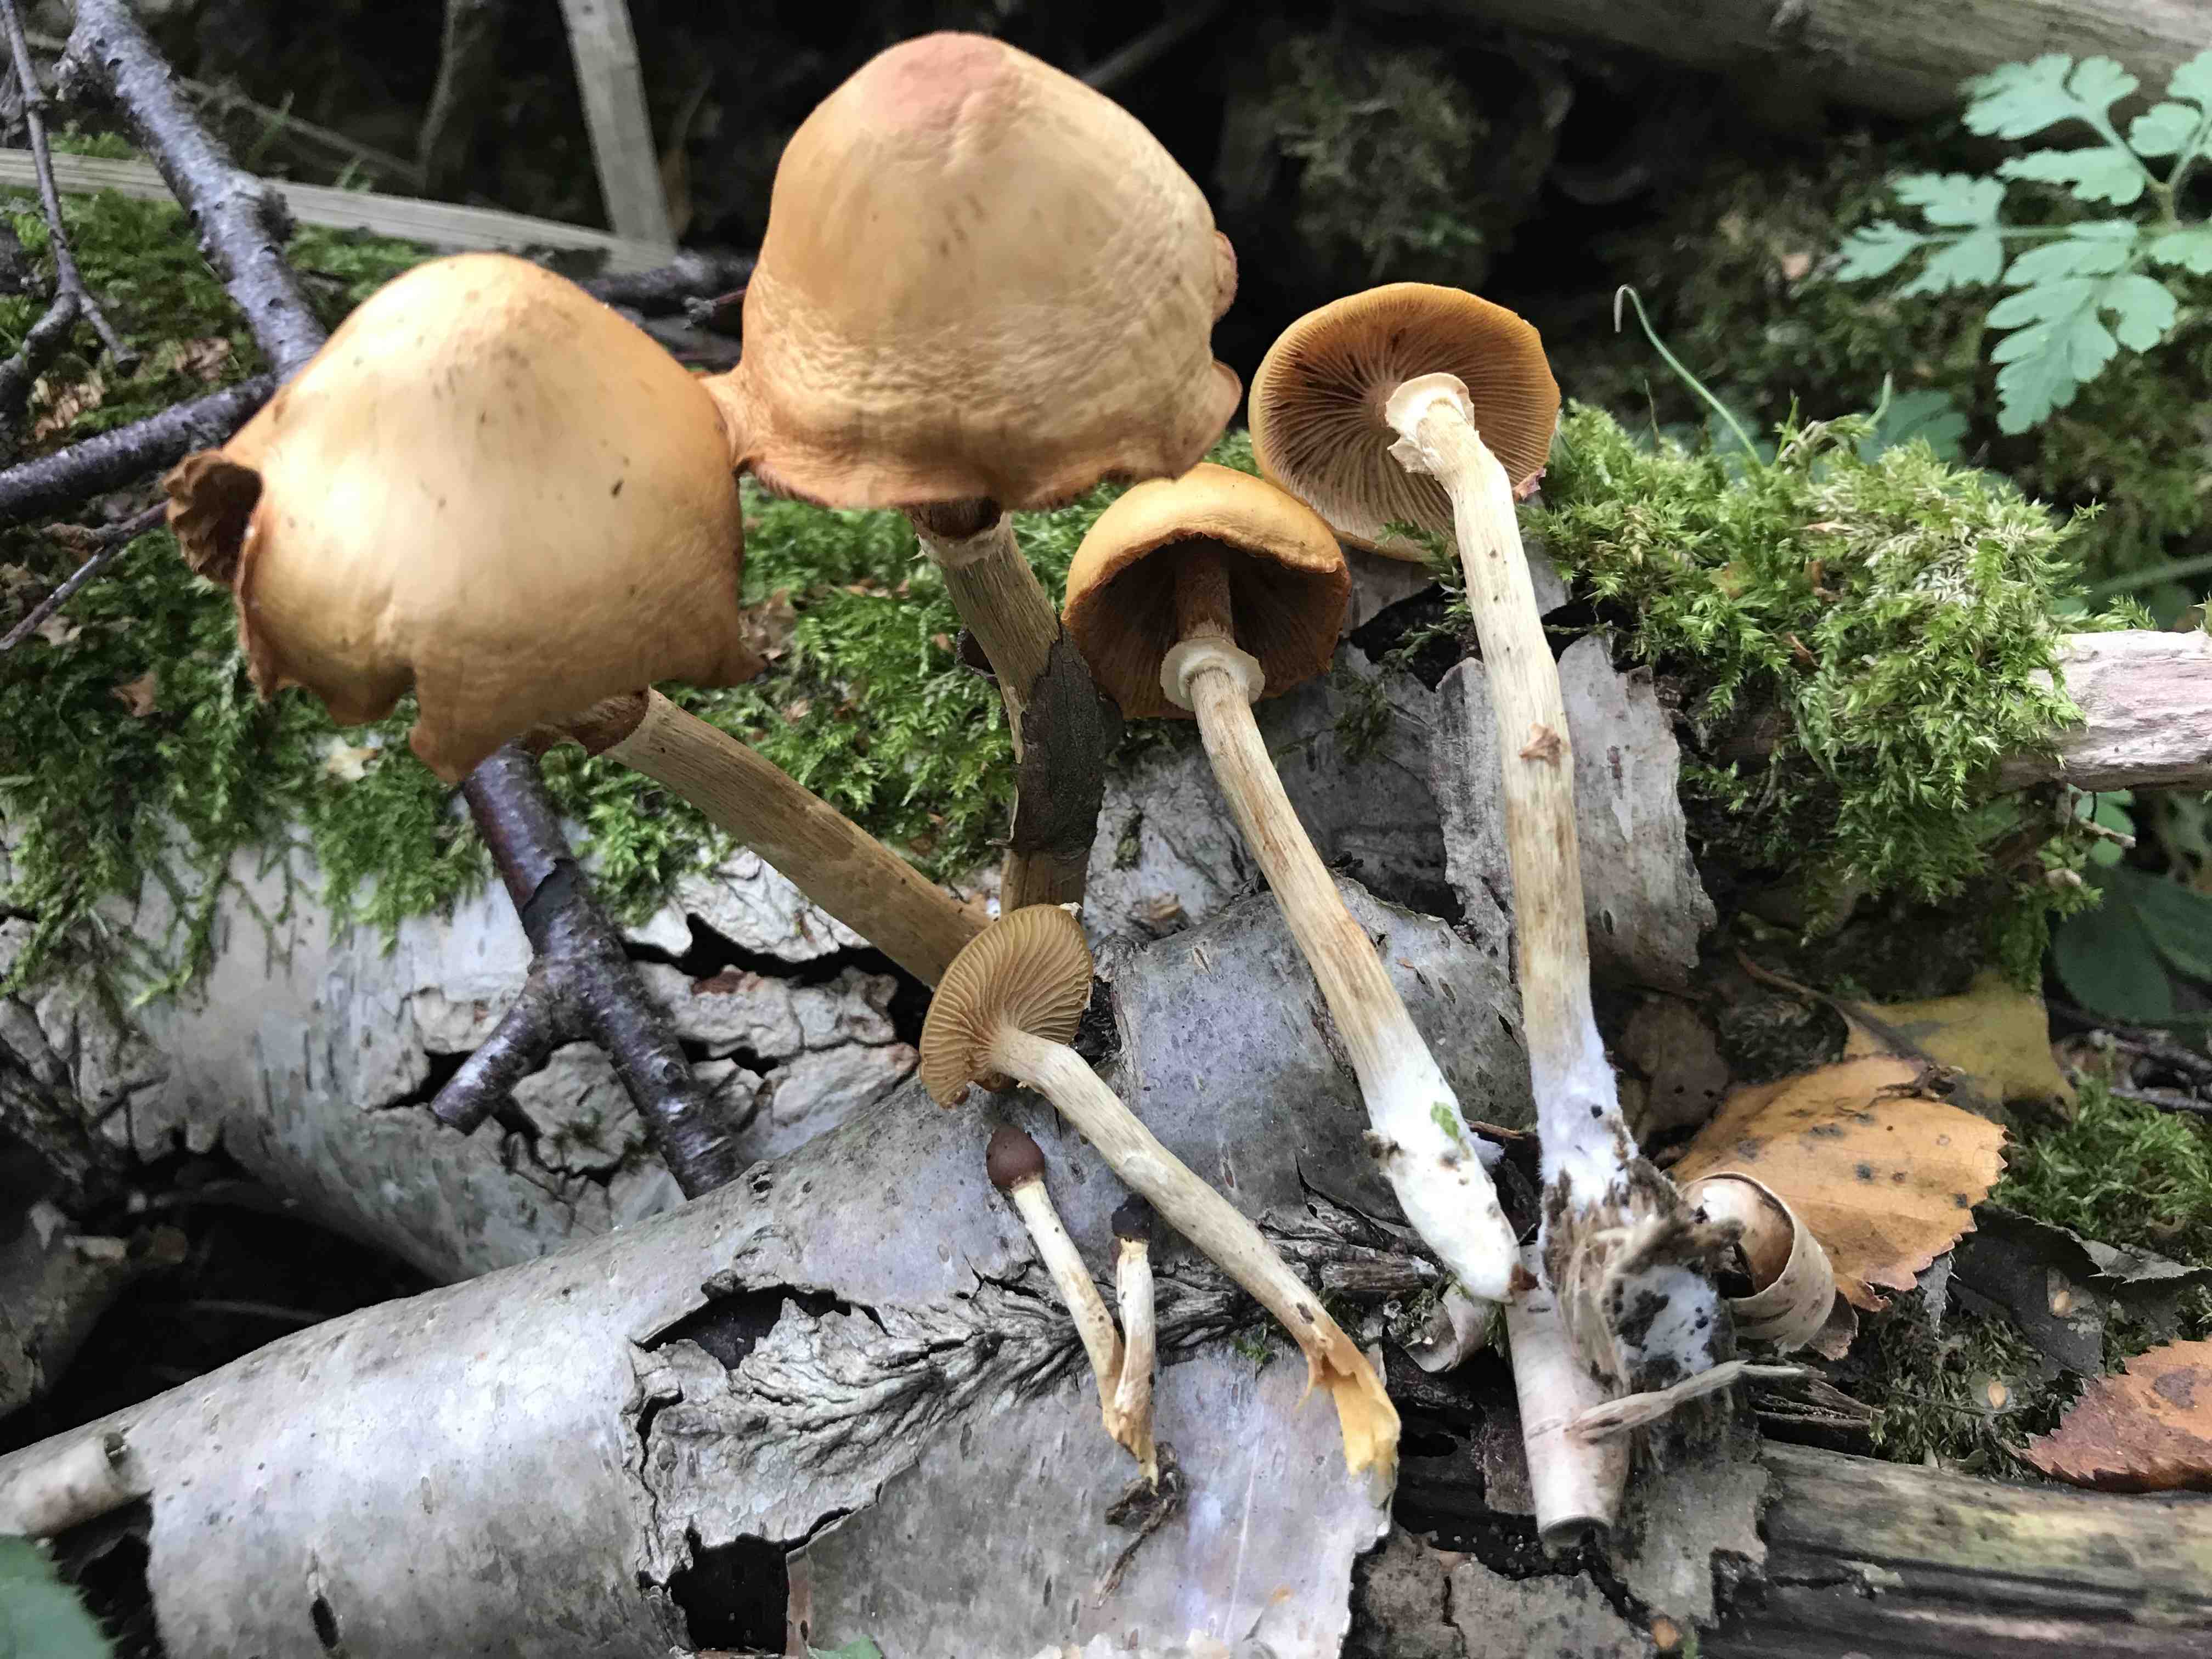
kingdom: Fungi
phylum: Basidiomycota
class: Agaricomycetes
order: Agaricales
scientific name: Agaricales
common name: champignonordenen
